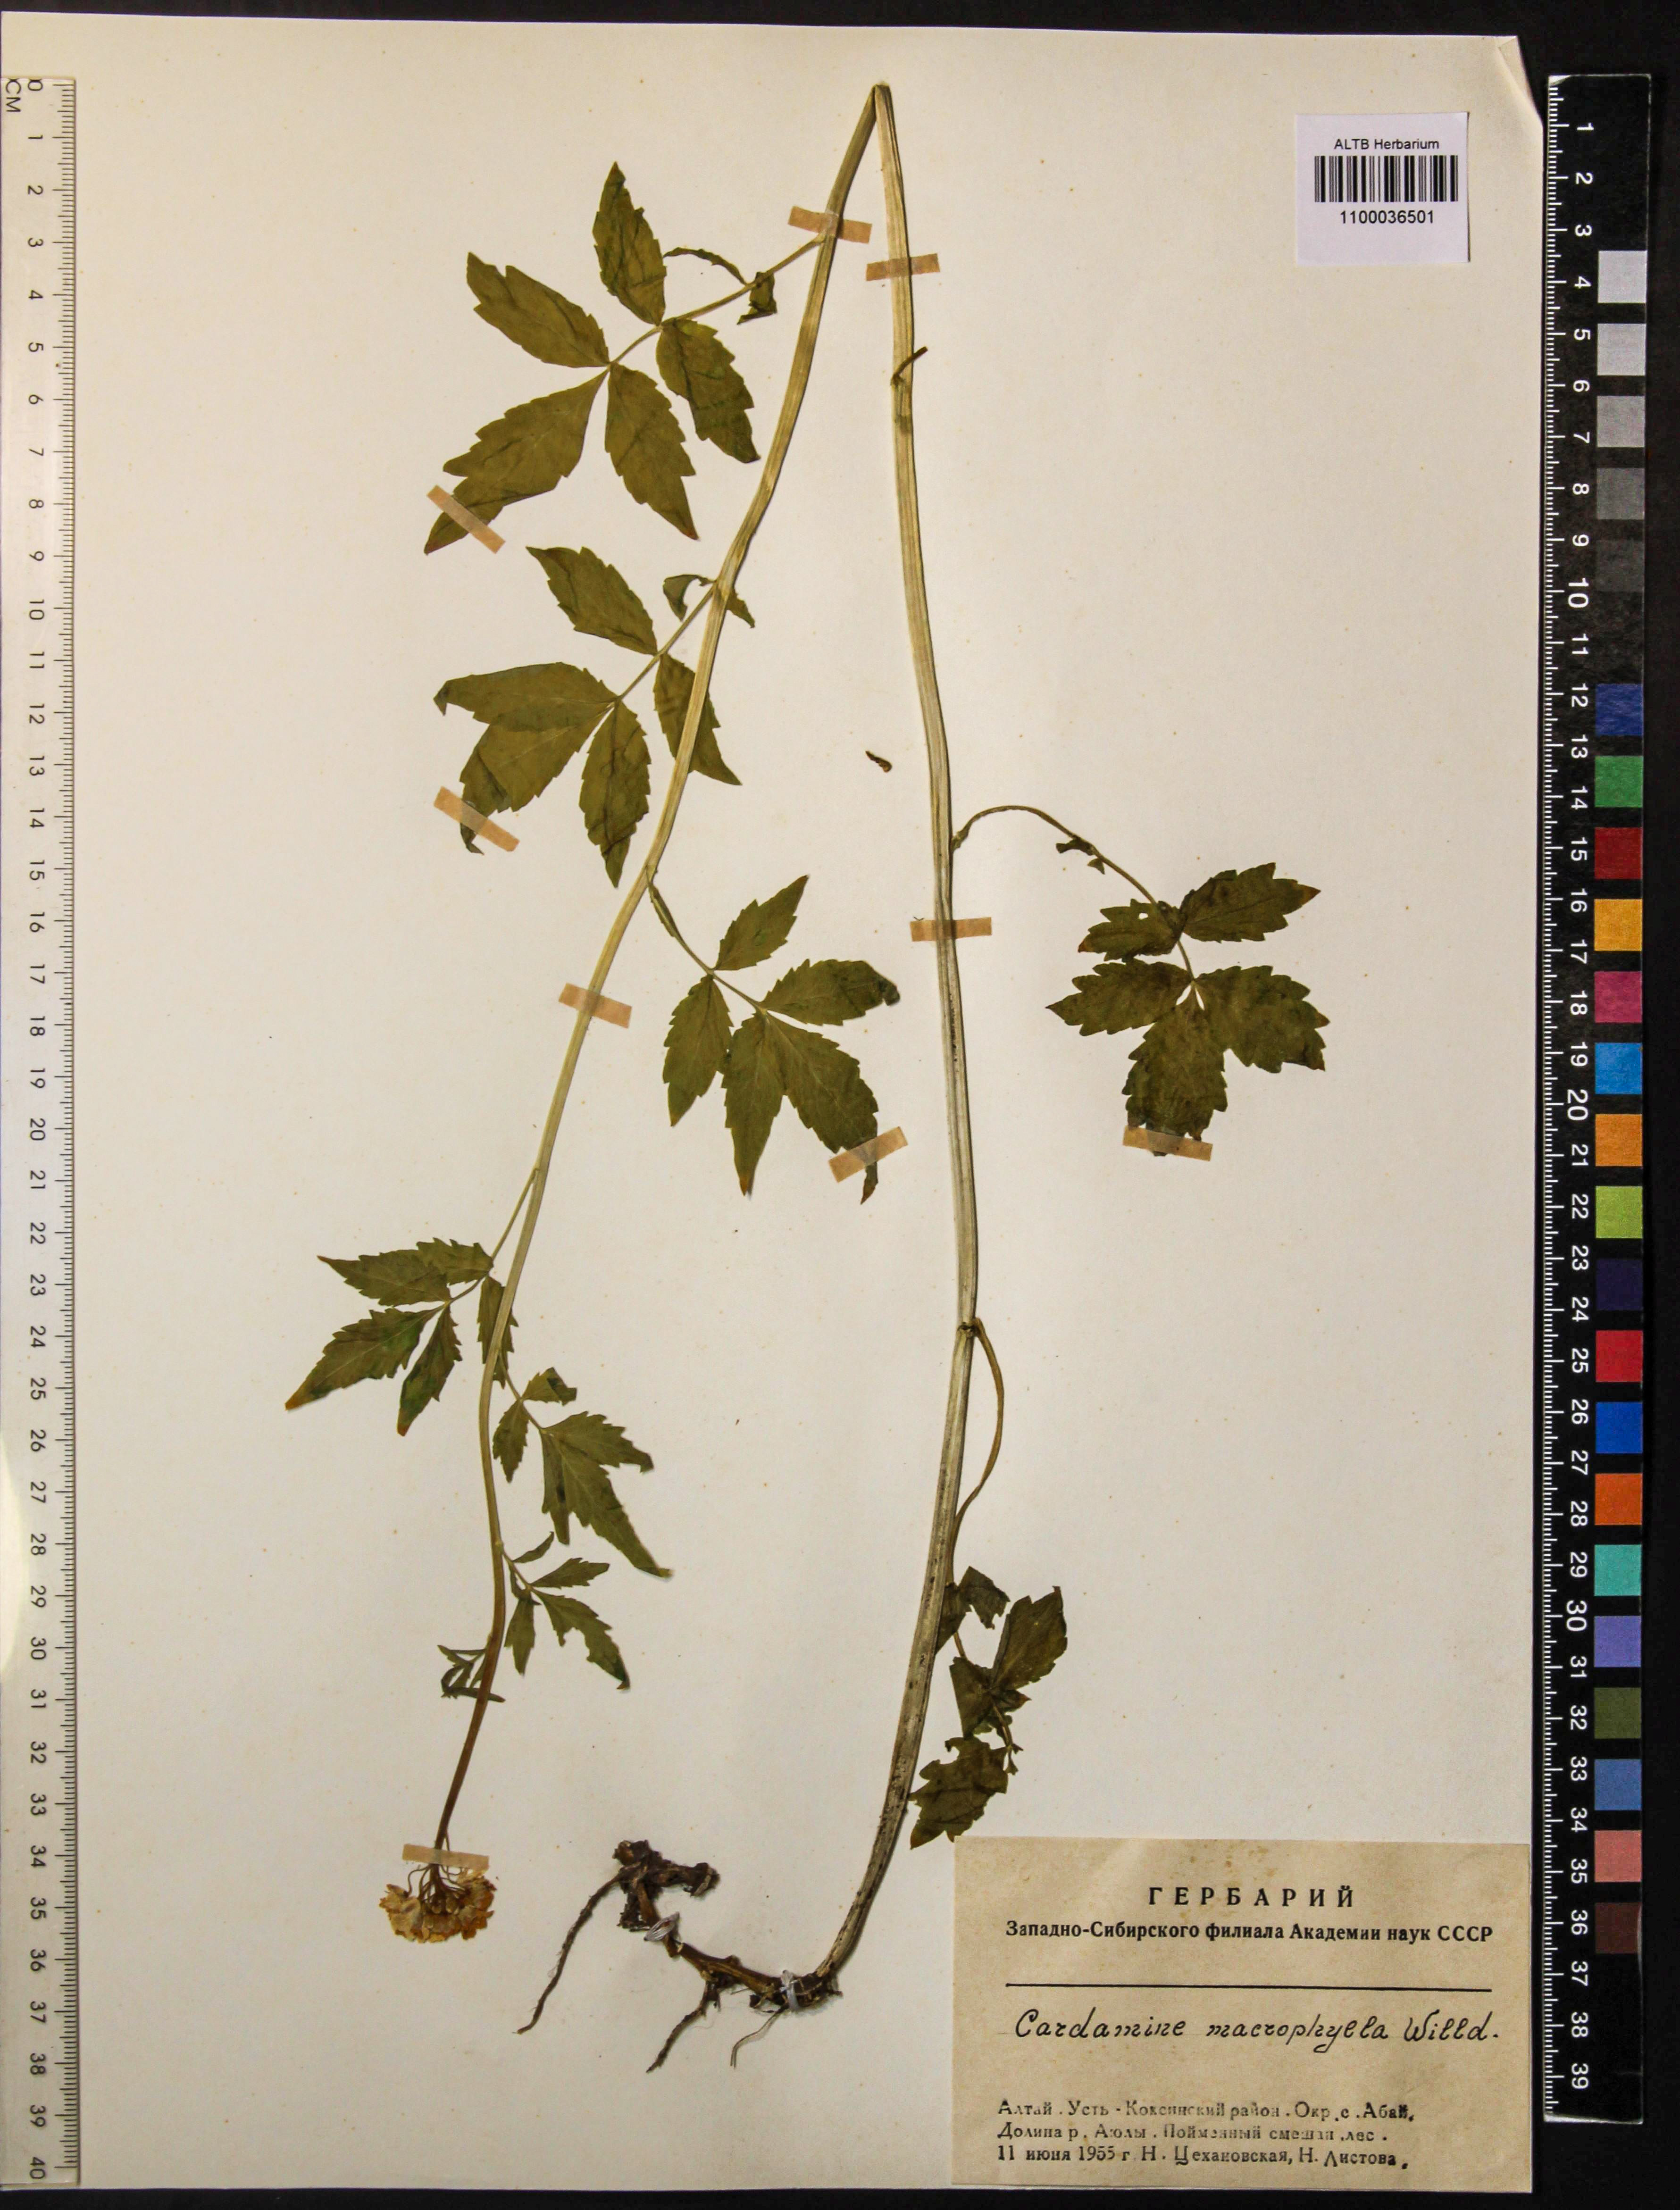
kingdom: Plantae
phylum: Tracheophyta
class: Magnoliopsida
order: Brassicales
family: Brassicaceae
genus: Cardamine
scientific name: Cardamine macrophylla
